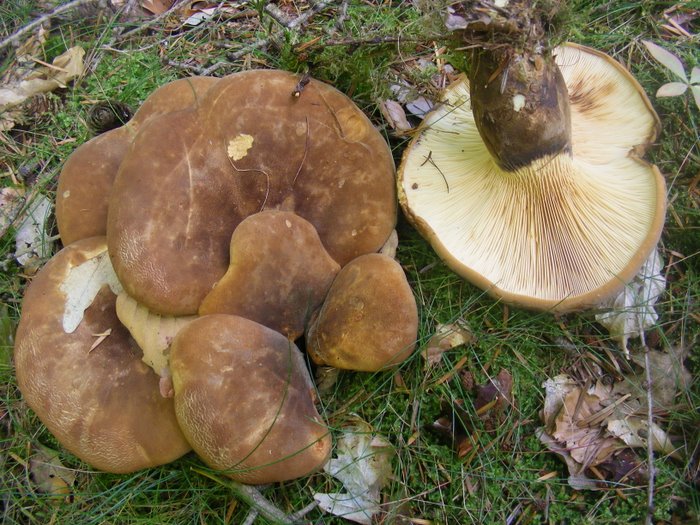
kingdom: Fungi
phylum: Basidiomycota
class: Agaricomycetes
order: Boletales
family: Tapinellaceae
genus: Tapinella
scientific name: Tapinella atrotomentosa
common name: sortfiltet viftesvamp
